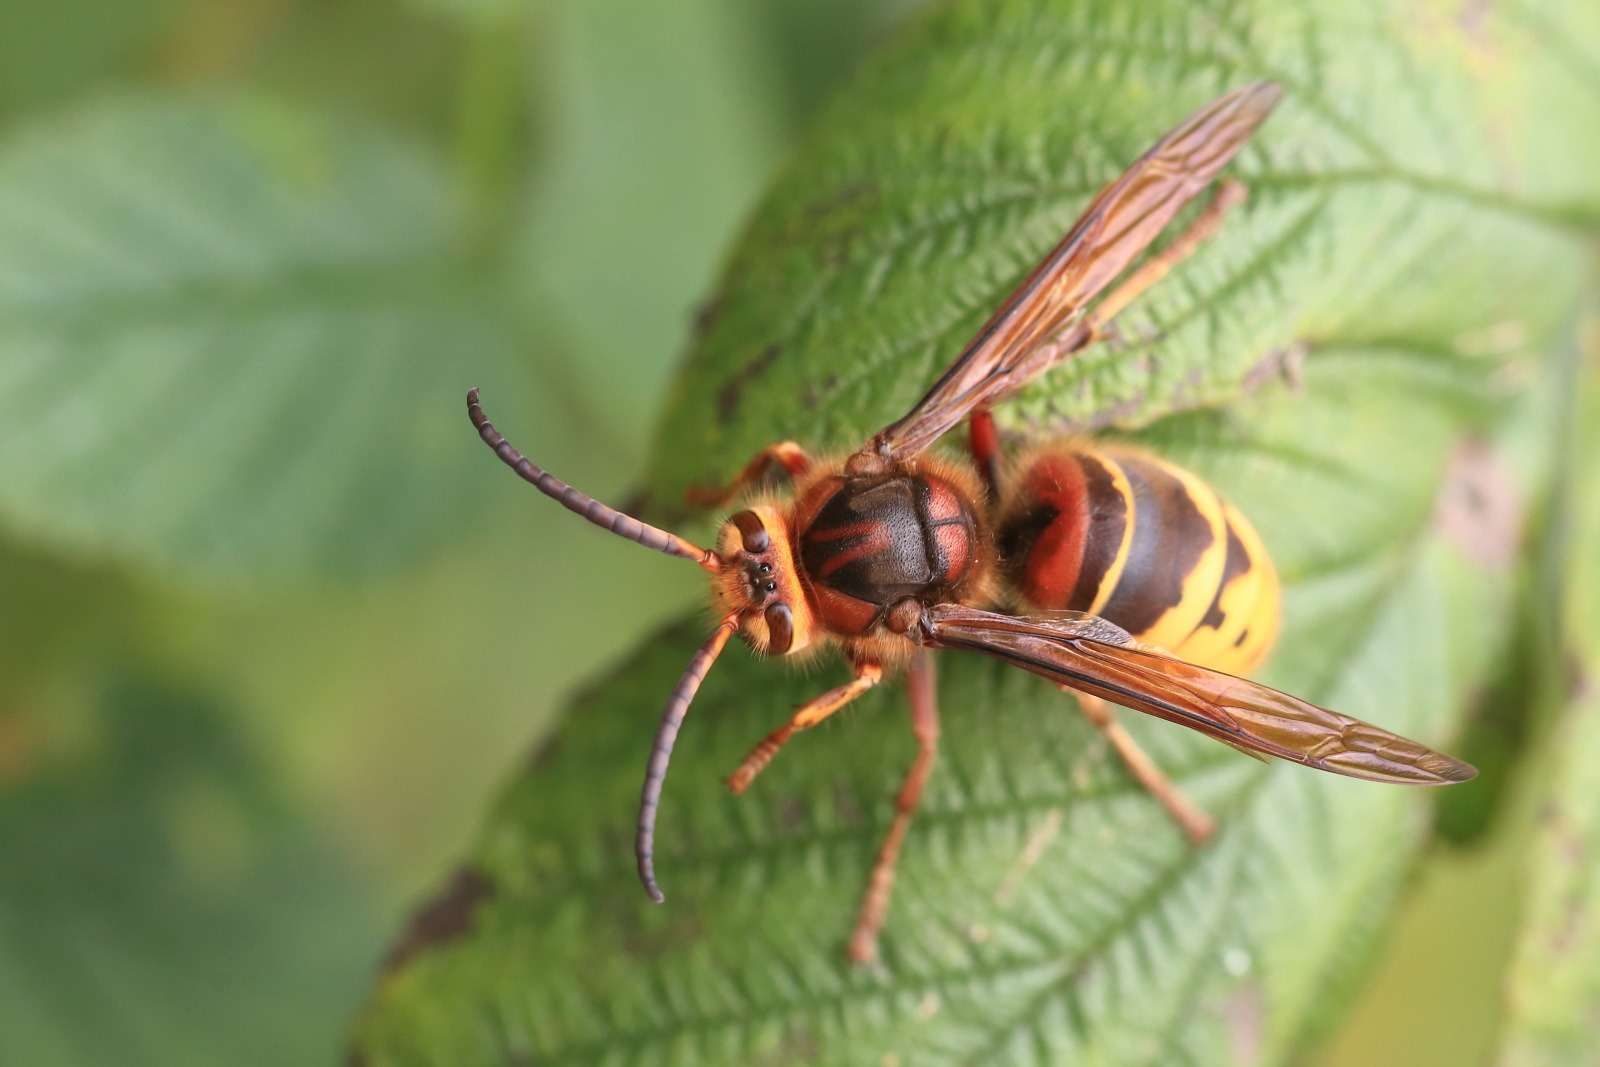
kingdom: Animalia
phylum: Arthropoda
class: Insecta
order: Hymenoptera
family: Vespidae
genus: Vespa
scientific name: Vespa crabro
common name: Stor gedehams
